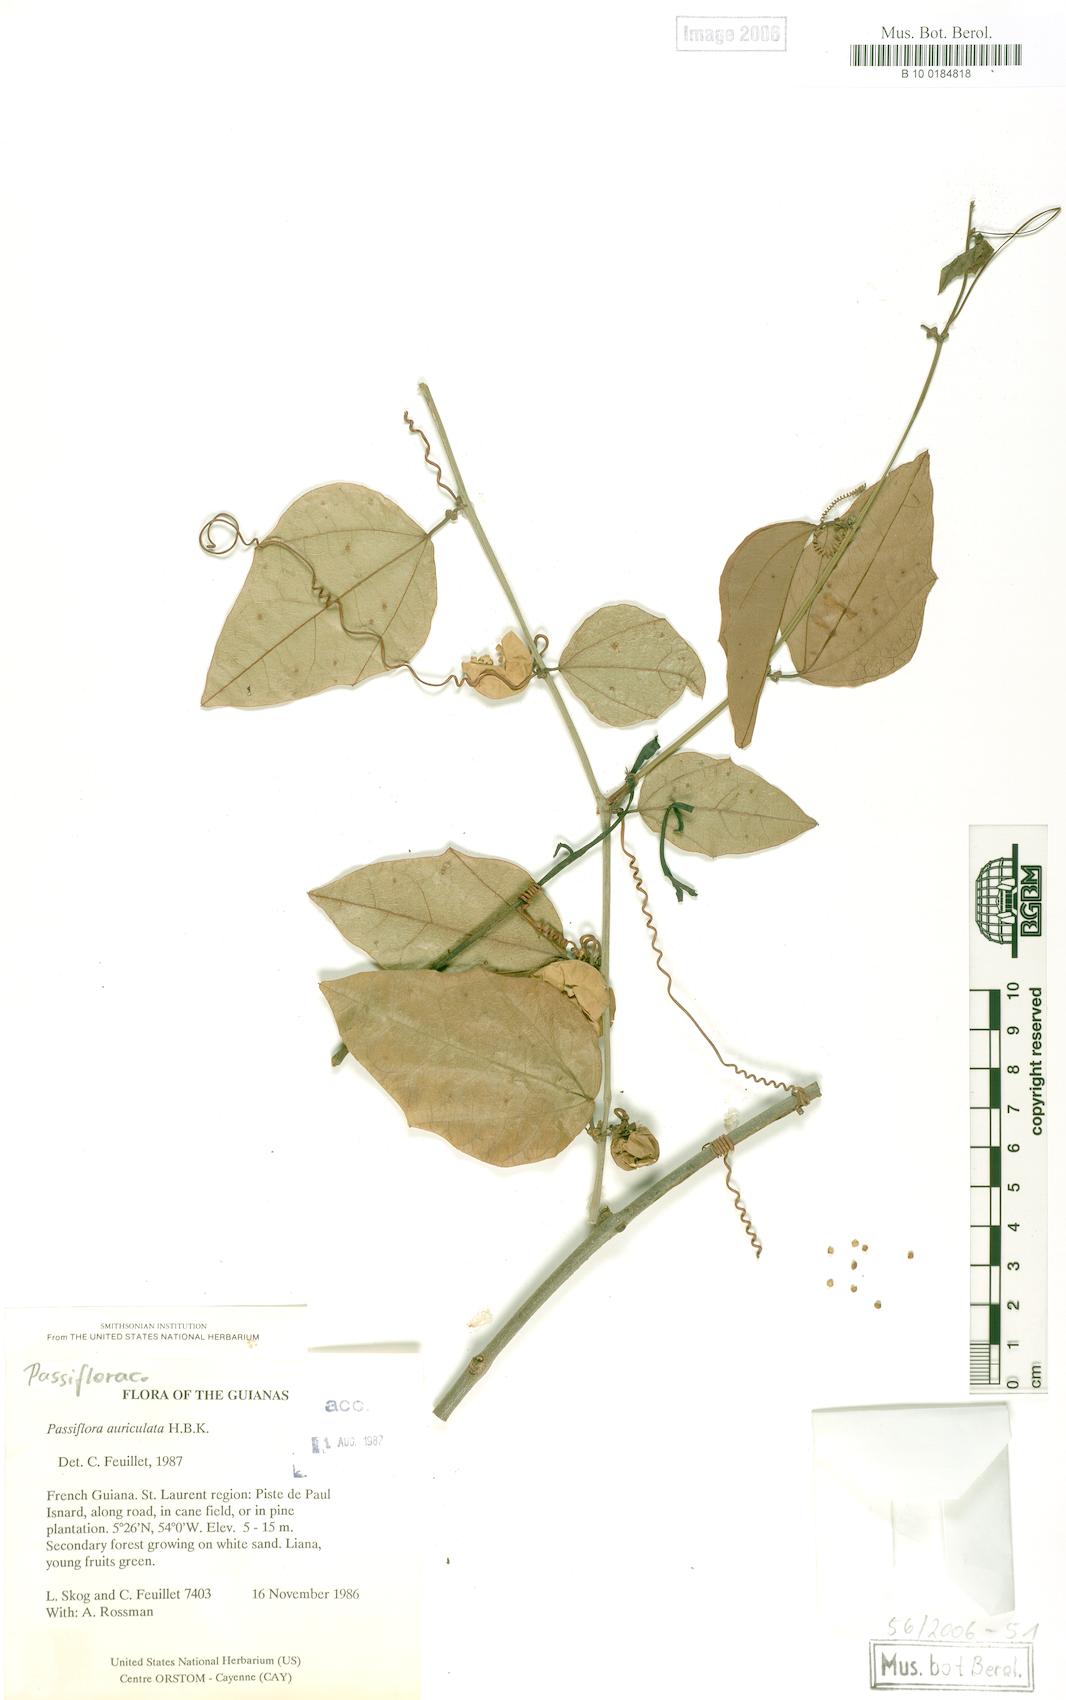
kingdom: Plantae
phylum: Tracheophyta
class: Magnoliopsida
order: Malpighiales
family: Passifloraceae
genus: Passiflora
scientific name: Passiflora auriculata
